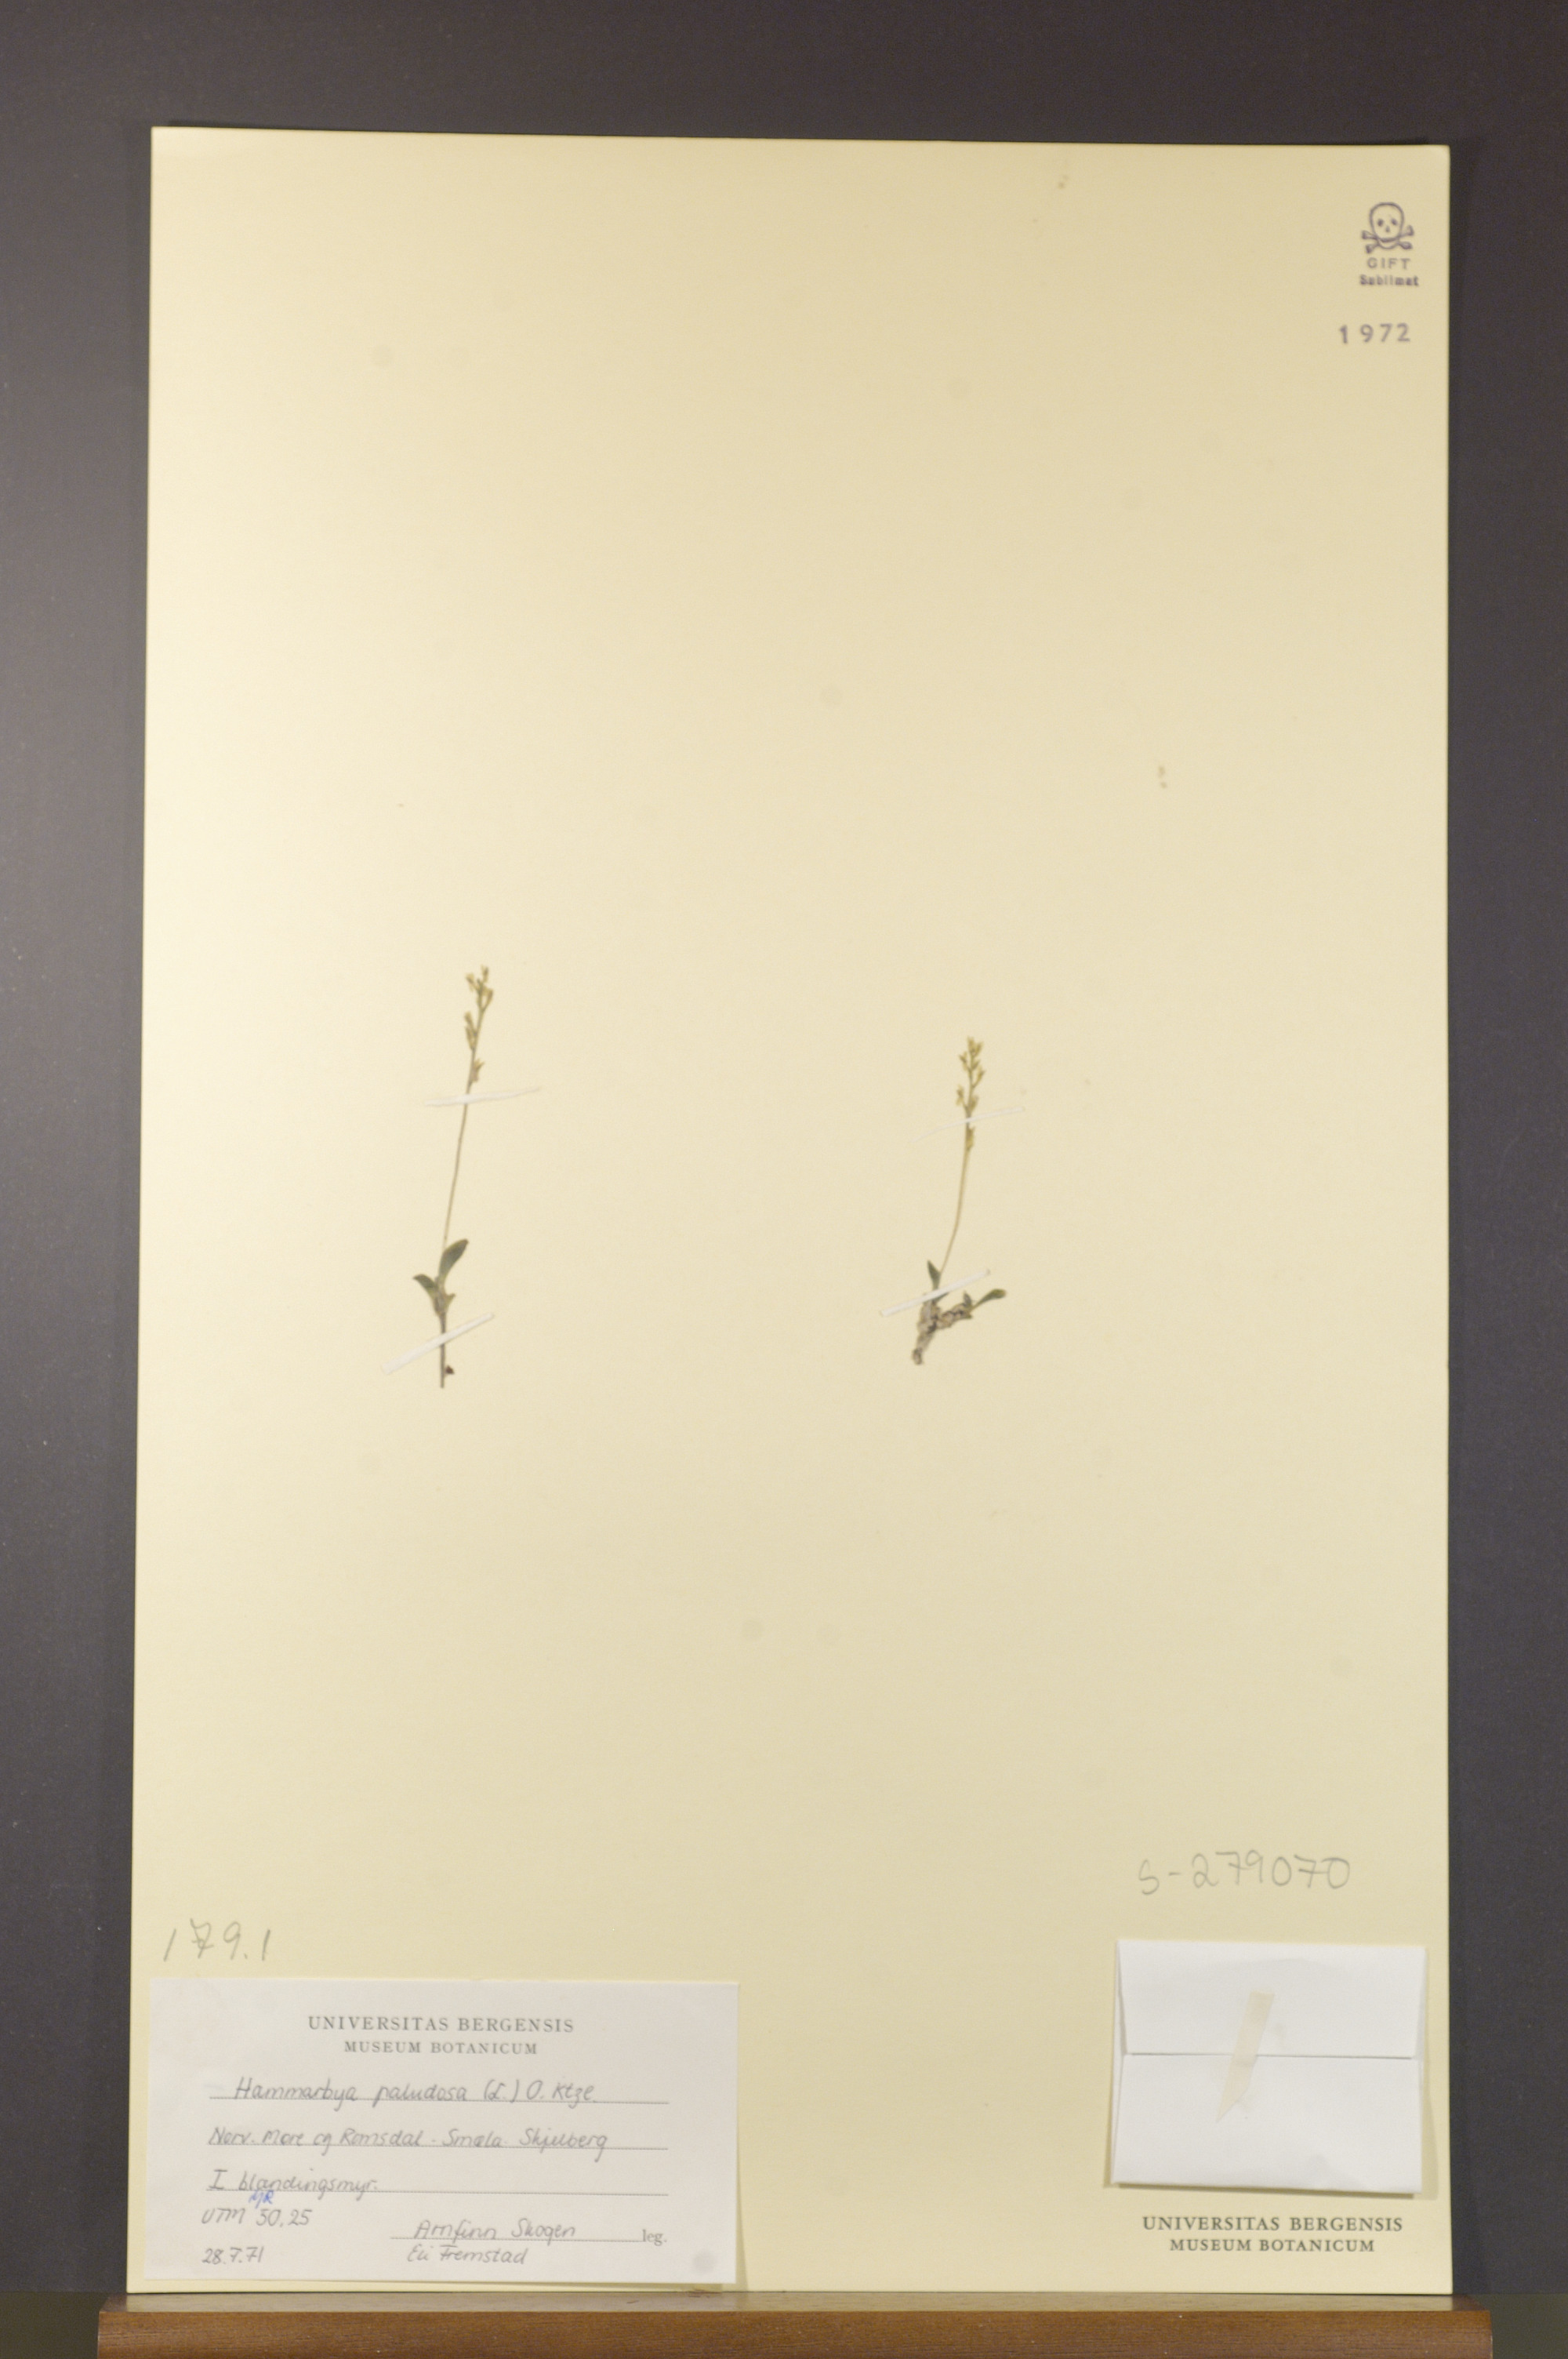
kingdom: Plantae
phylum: Tracheophyta
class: Liliopsida
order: Asparagales
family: Orchidaceae
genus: Hammarbya
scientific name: Hammarbya paludosa
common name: Bog orchid
